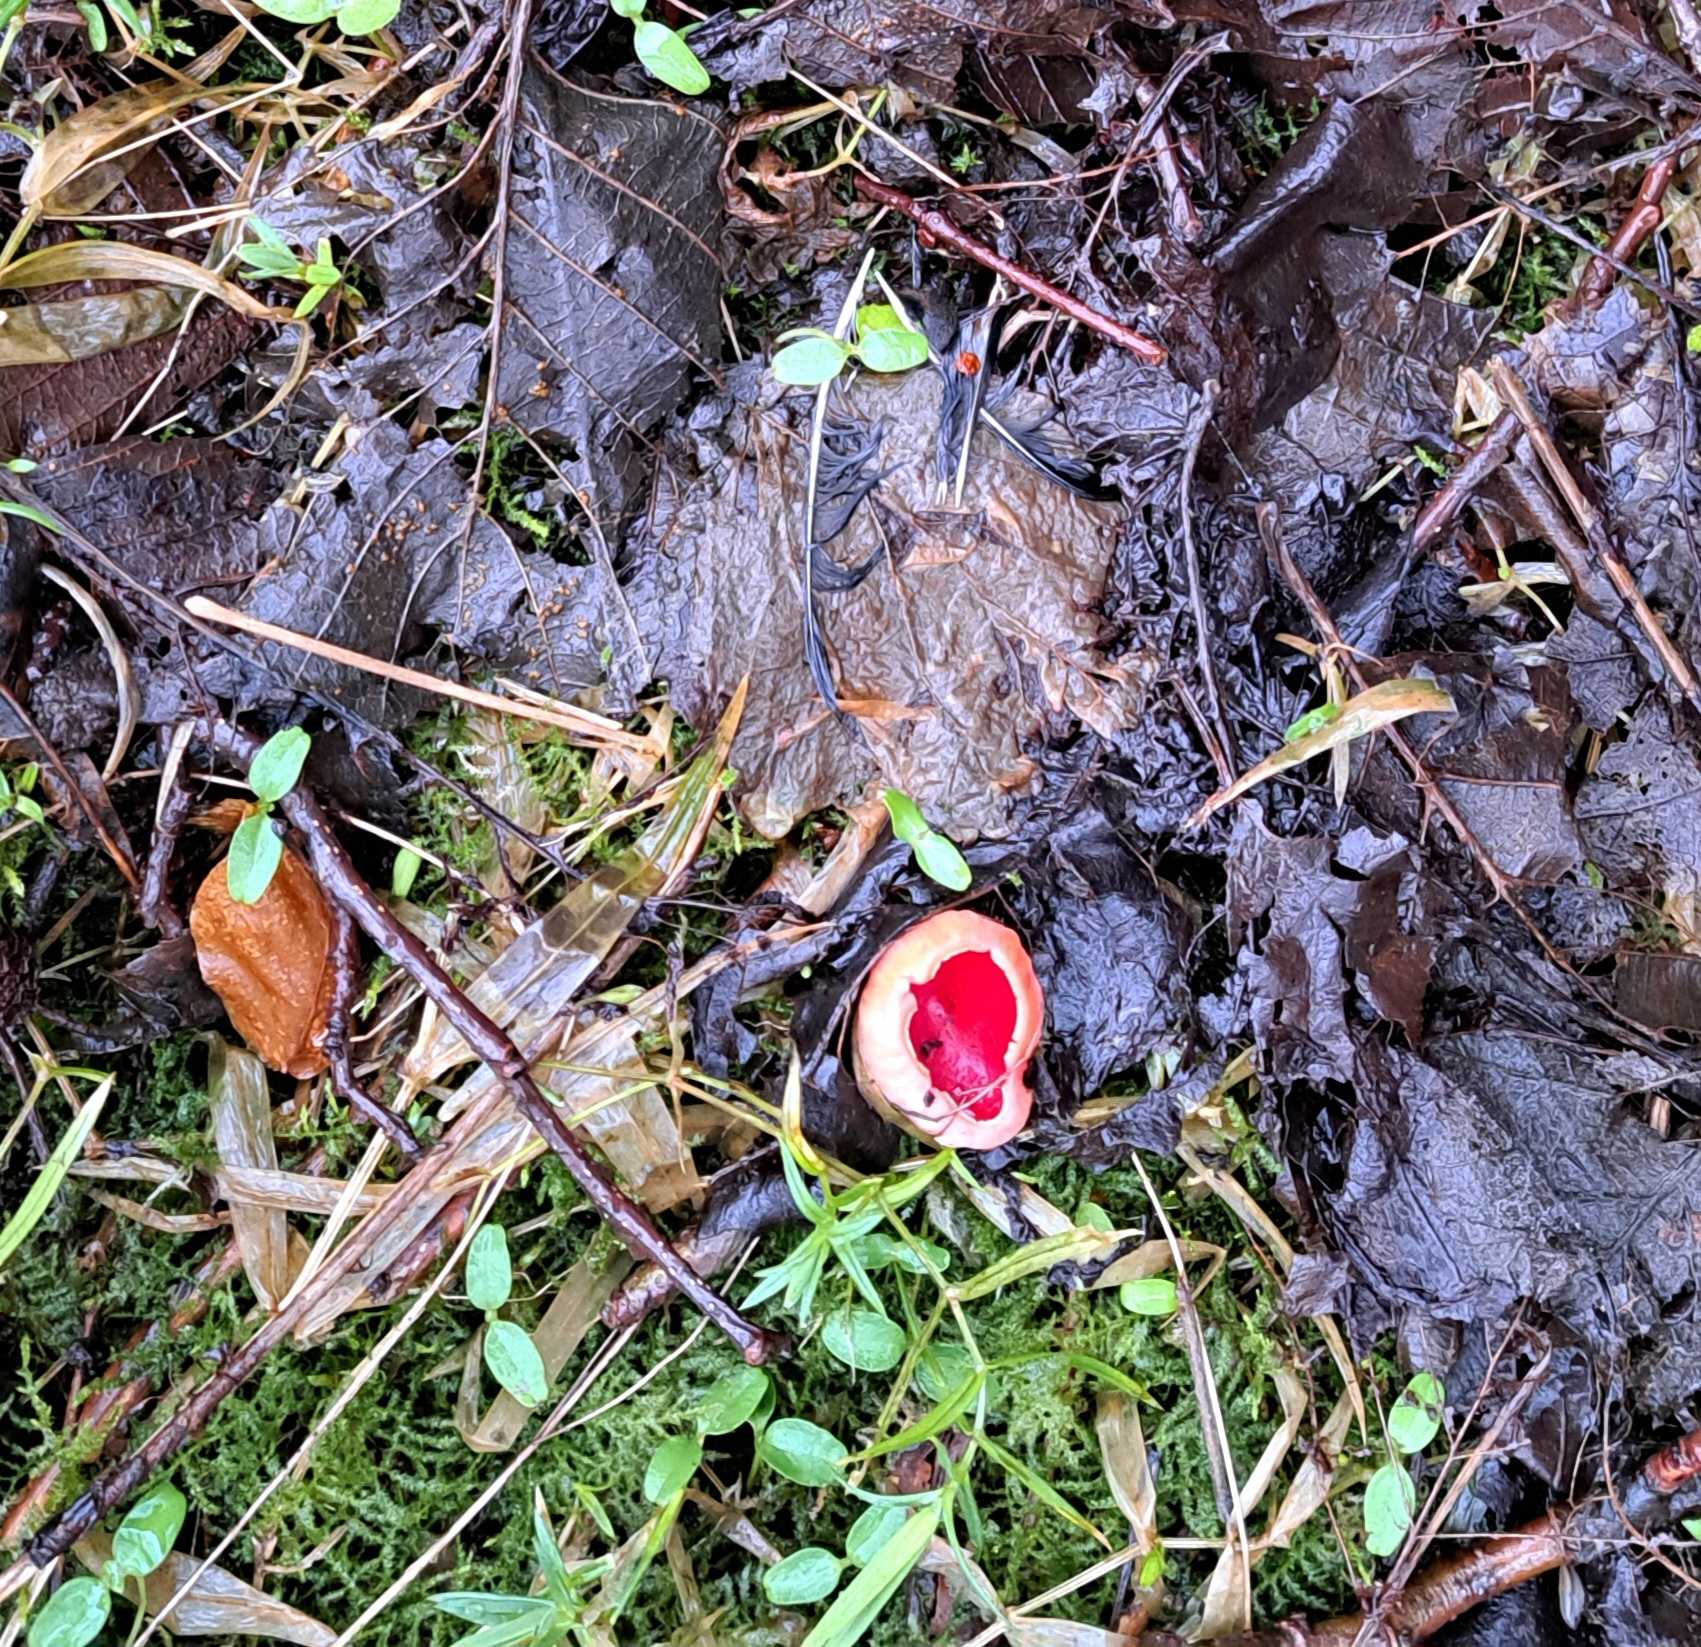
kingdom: Fungi
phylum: Ascomycota
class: Pezizomycetes
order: Pezizales
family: Sarcoscyphaceae
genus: Sarcoscypha
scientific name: Sarcoscypha austriaca
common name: krølhåret pragtbæger
